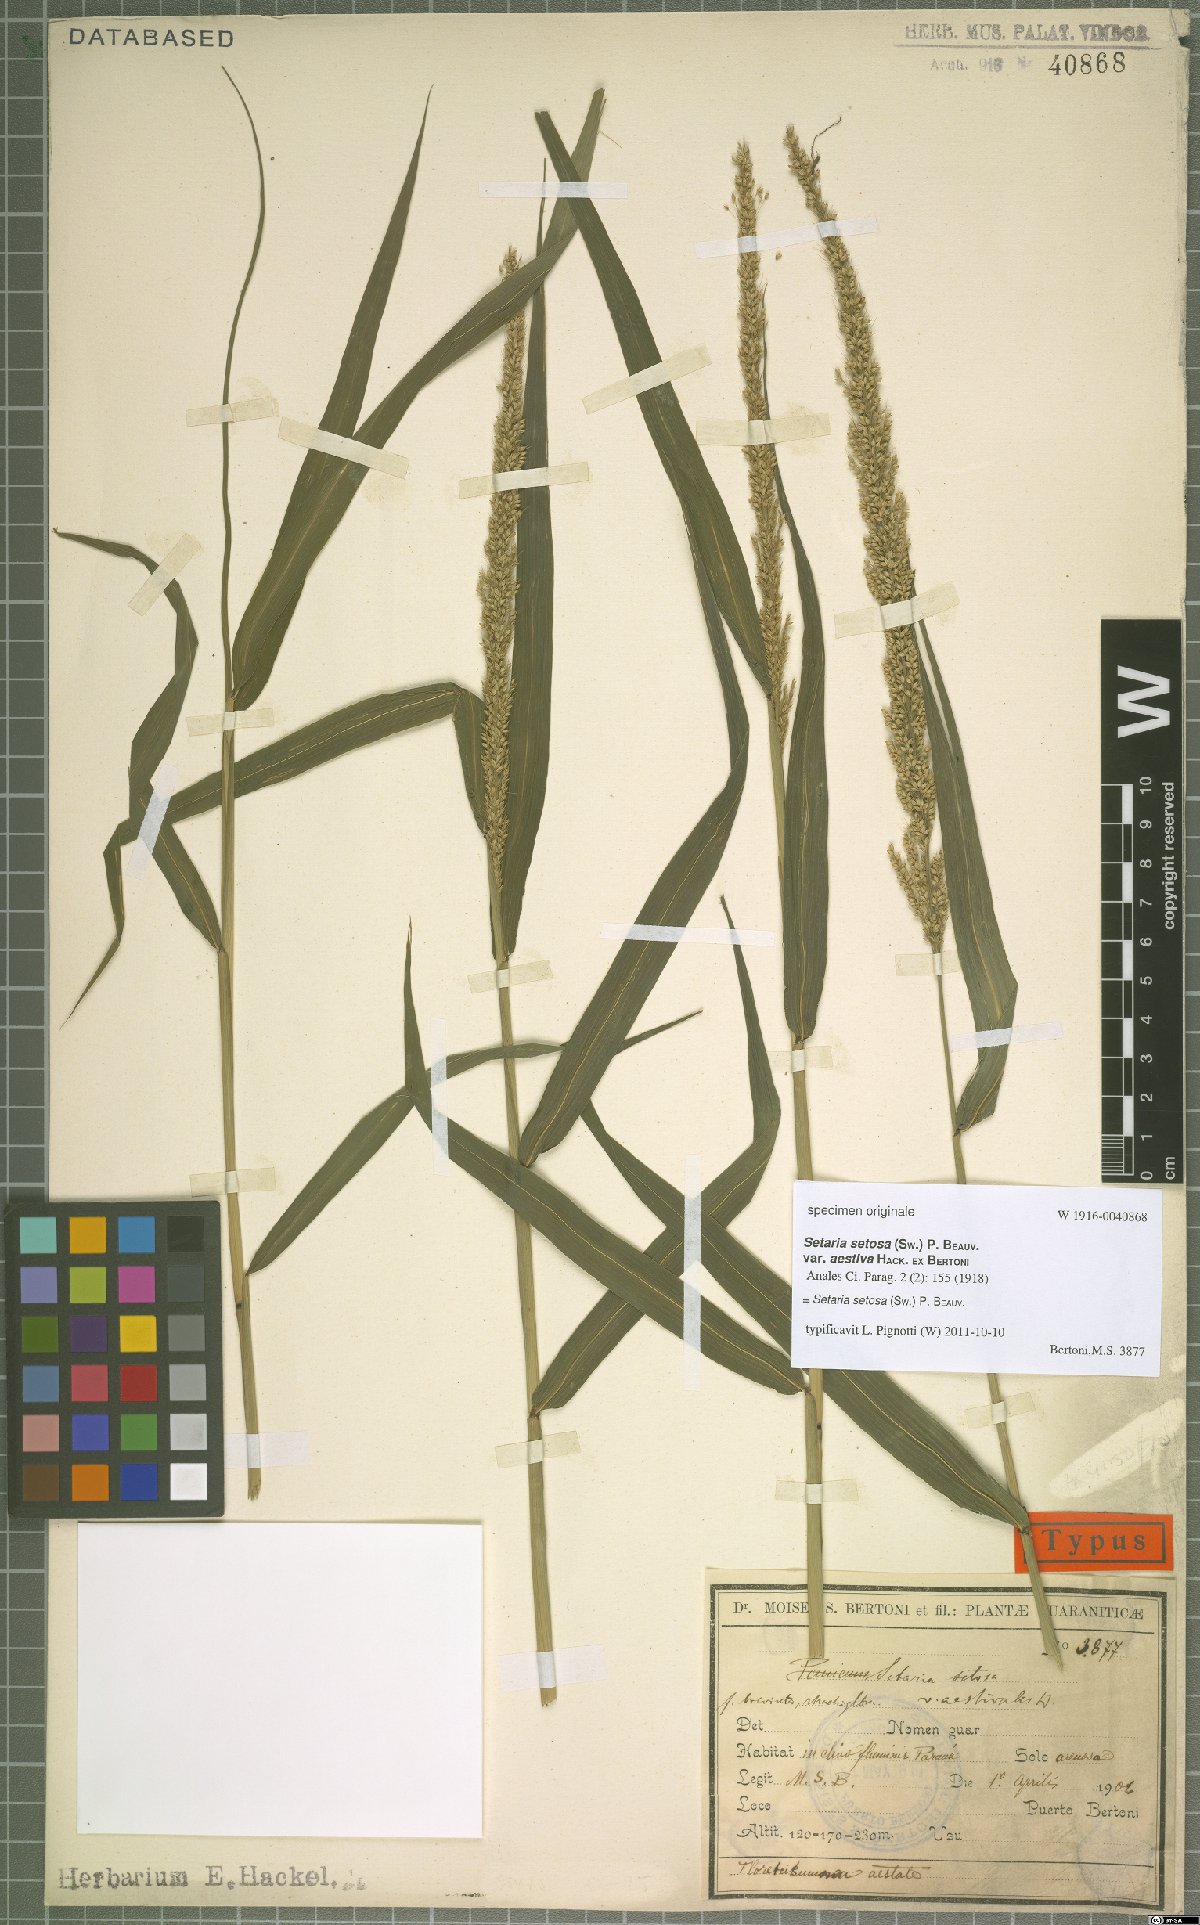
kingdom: Plantae
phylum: Tracheophyta
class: Liliopsida
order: Poales
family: Poaceae
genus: Setaria
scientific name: Setaria setosa
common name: West indies bristle grass
